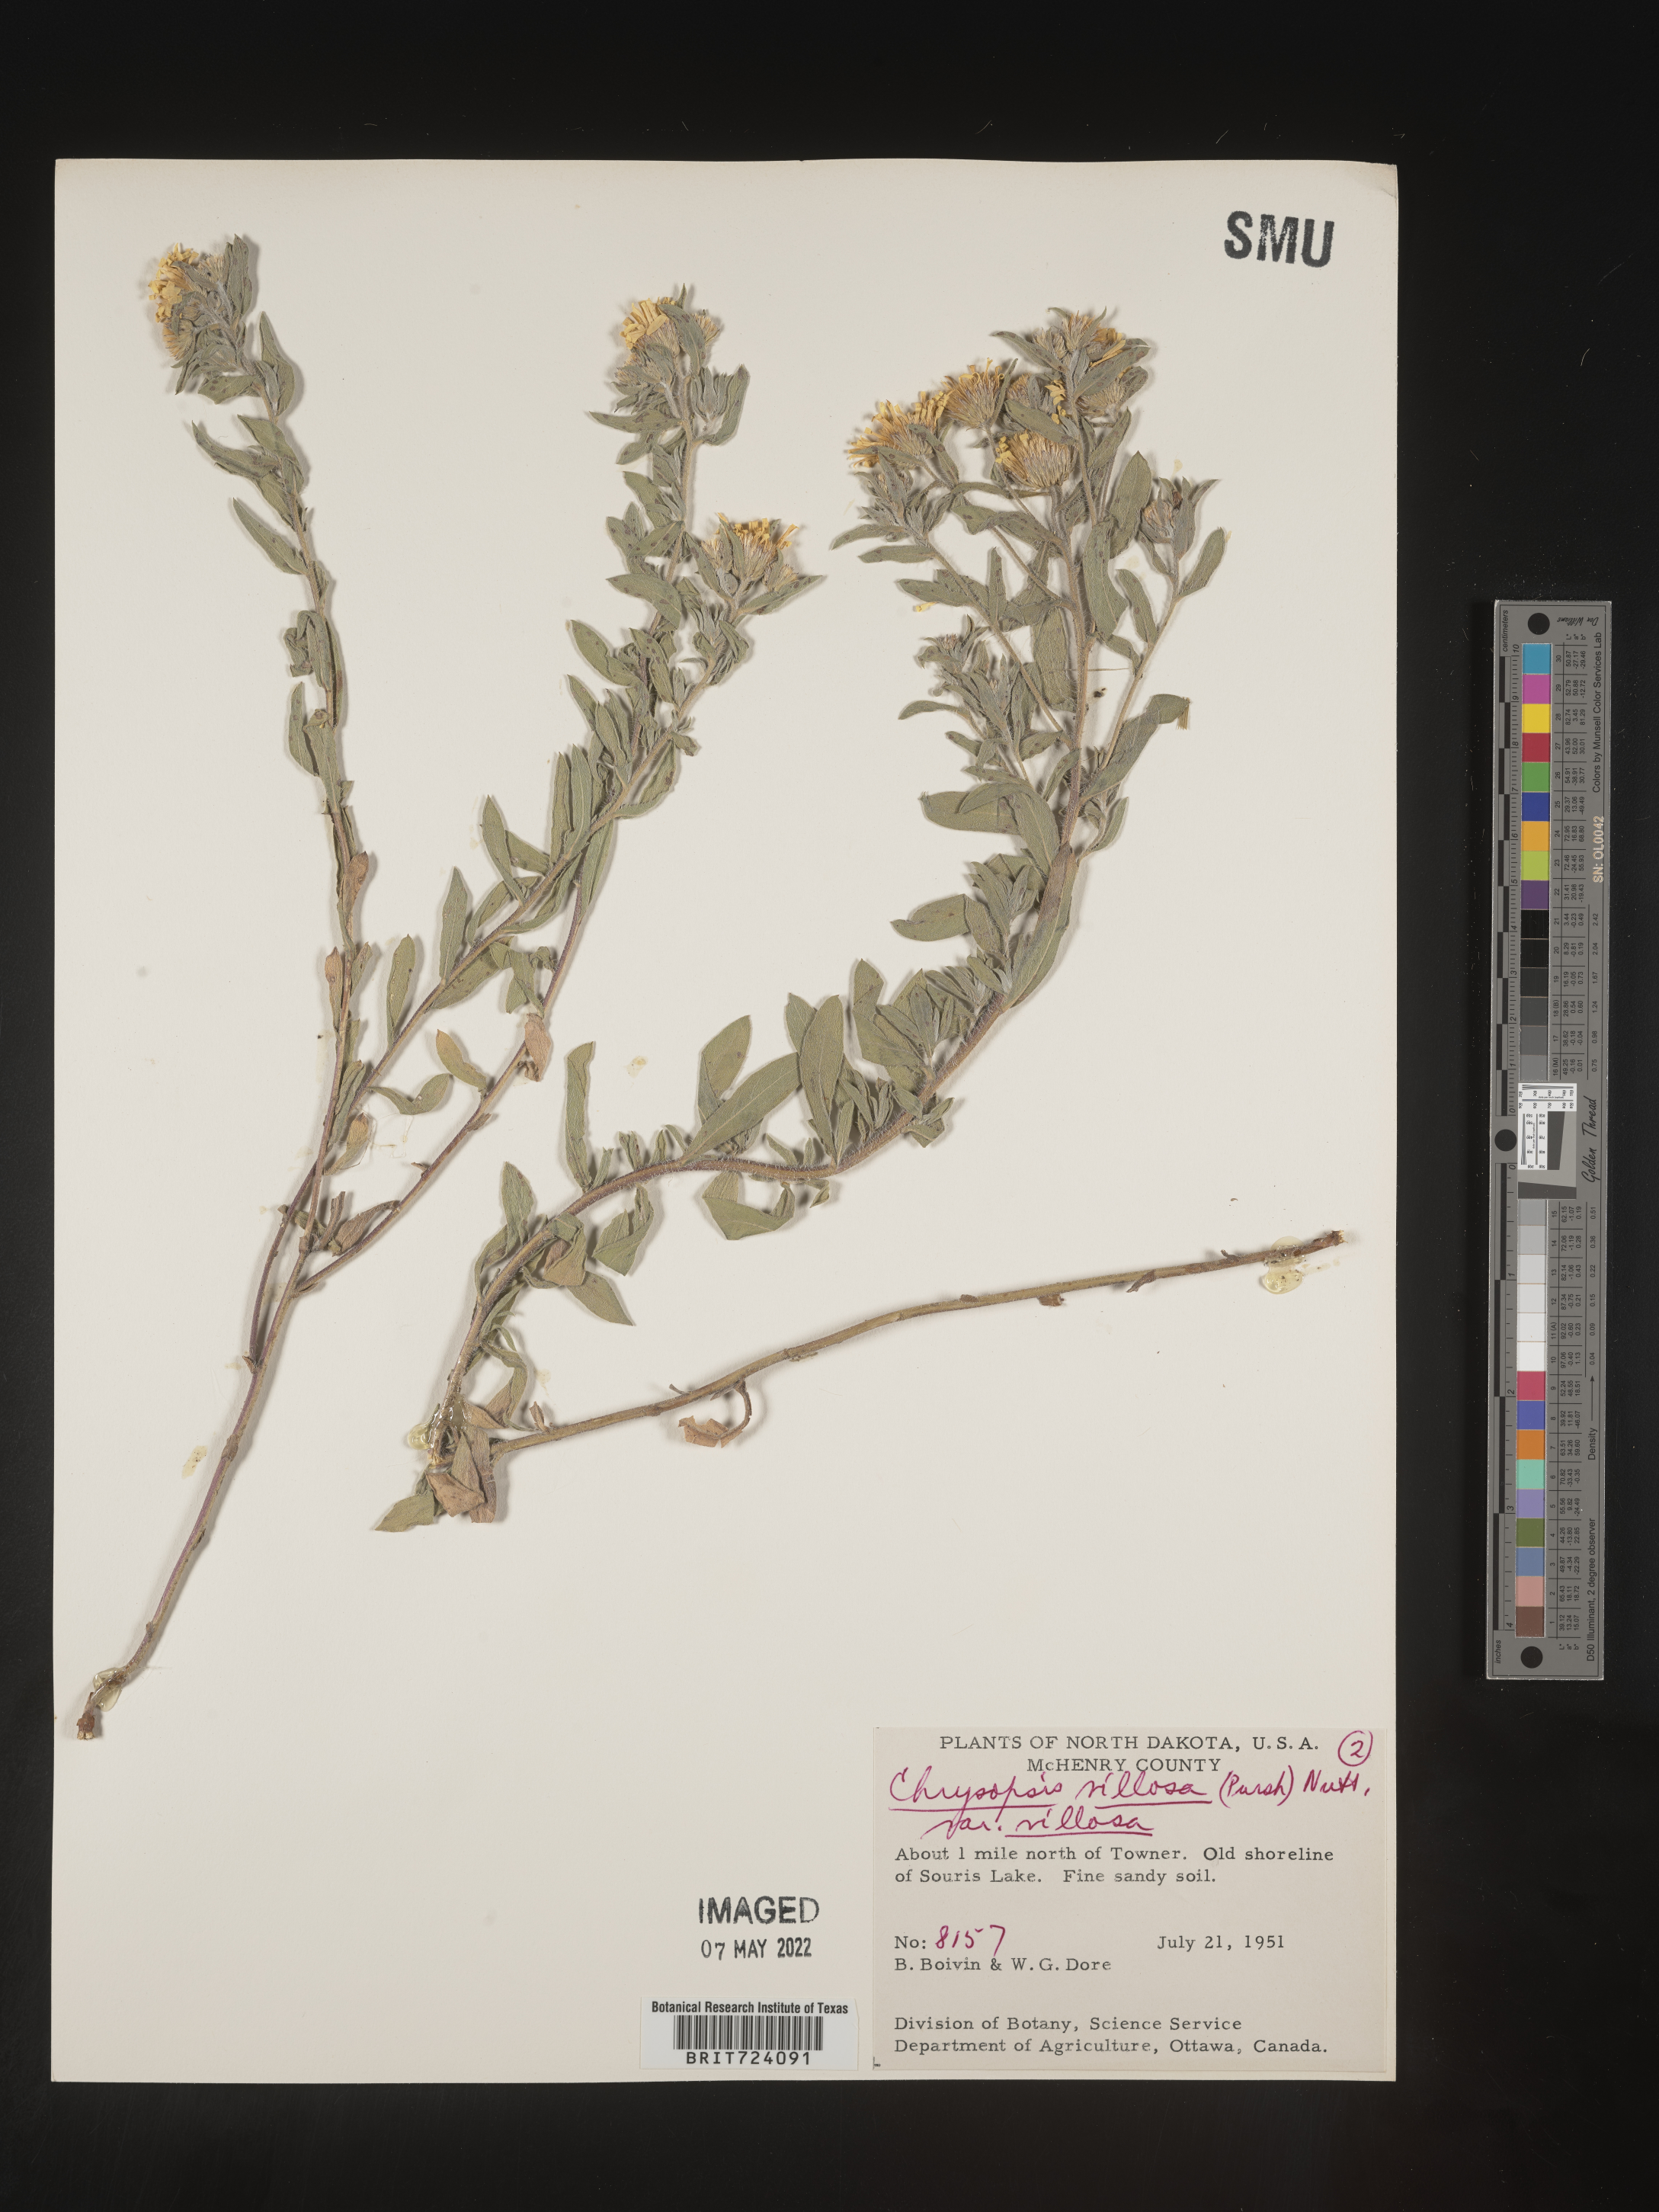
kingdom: Plantae
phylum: Tracheophyta
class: Magnoliopsida
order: Asterales
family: Asteraceae
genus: Heterotheca
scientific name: Heterotheca villosa
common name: Hairy false goldenaster
